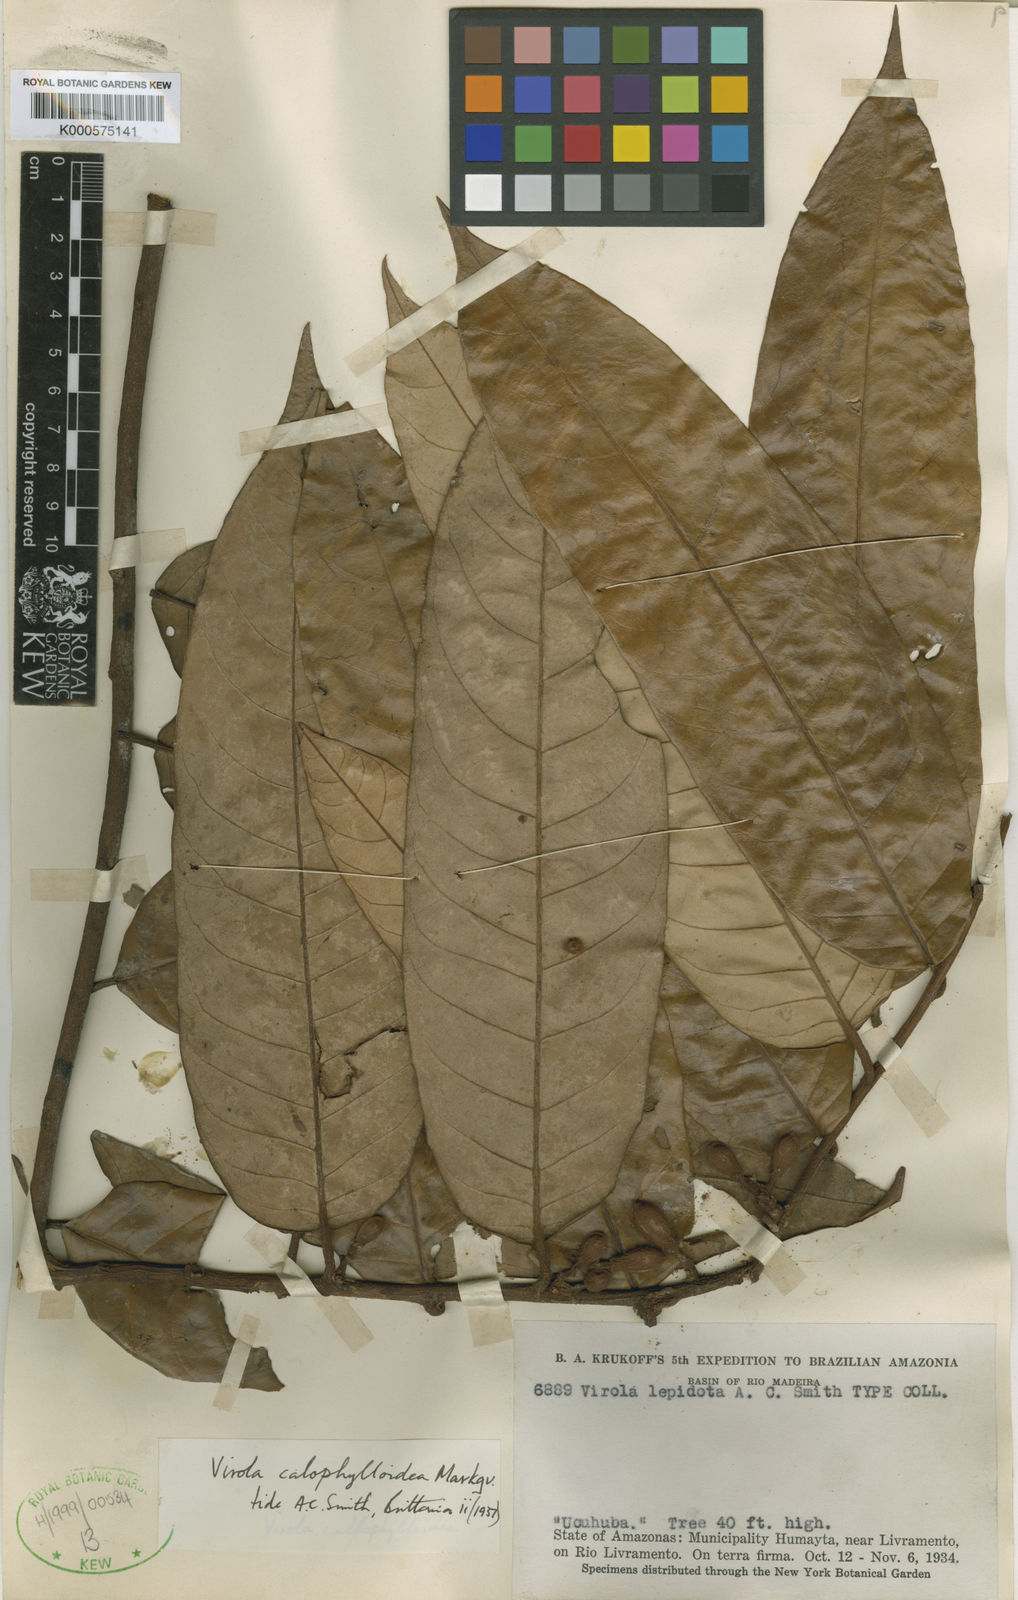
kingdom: Plantae
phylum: Tracheophyta
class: Magnoliopsida
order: Magnoliales
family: Myristicaceae
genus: Virola
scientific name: Virola calophylla
